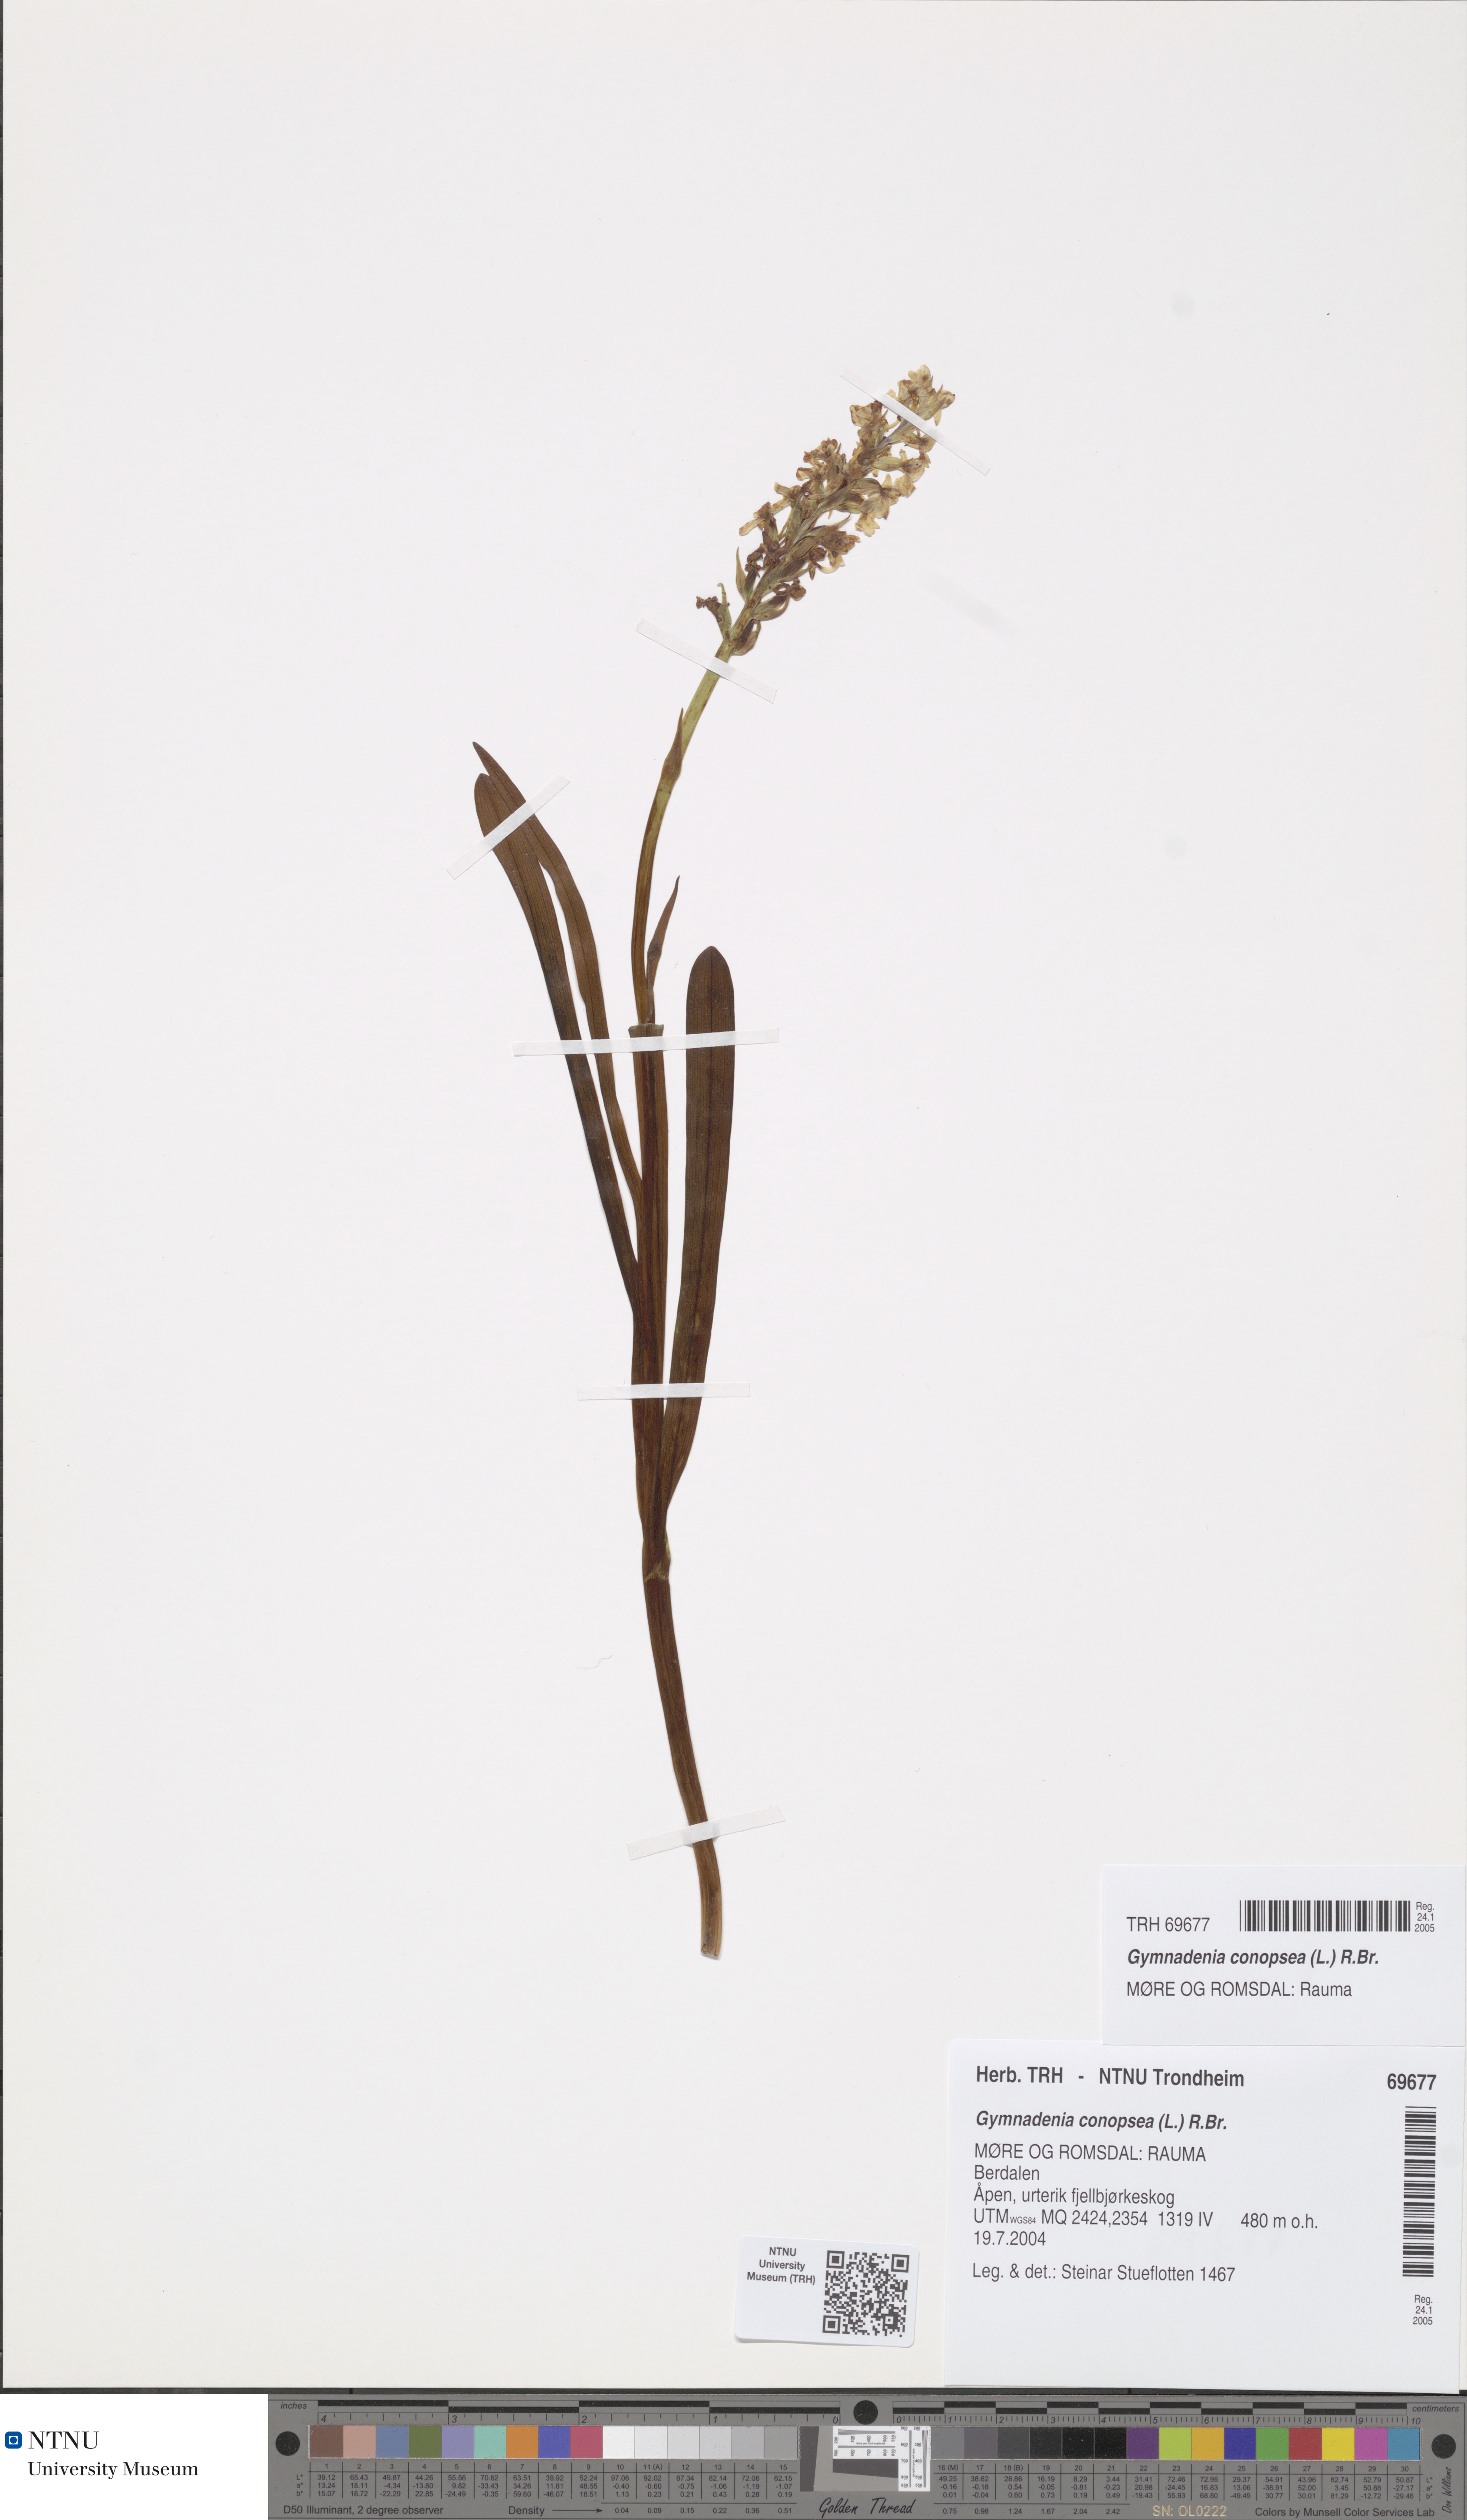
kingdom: Plantae
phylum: Tracheophyta
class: Liliopsida
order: Asparagales
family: Orchidaceae
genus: Gymnadenia
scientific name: Gymnadenia conopsea
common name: Fragrant orchid
